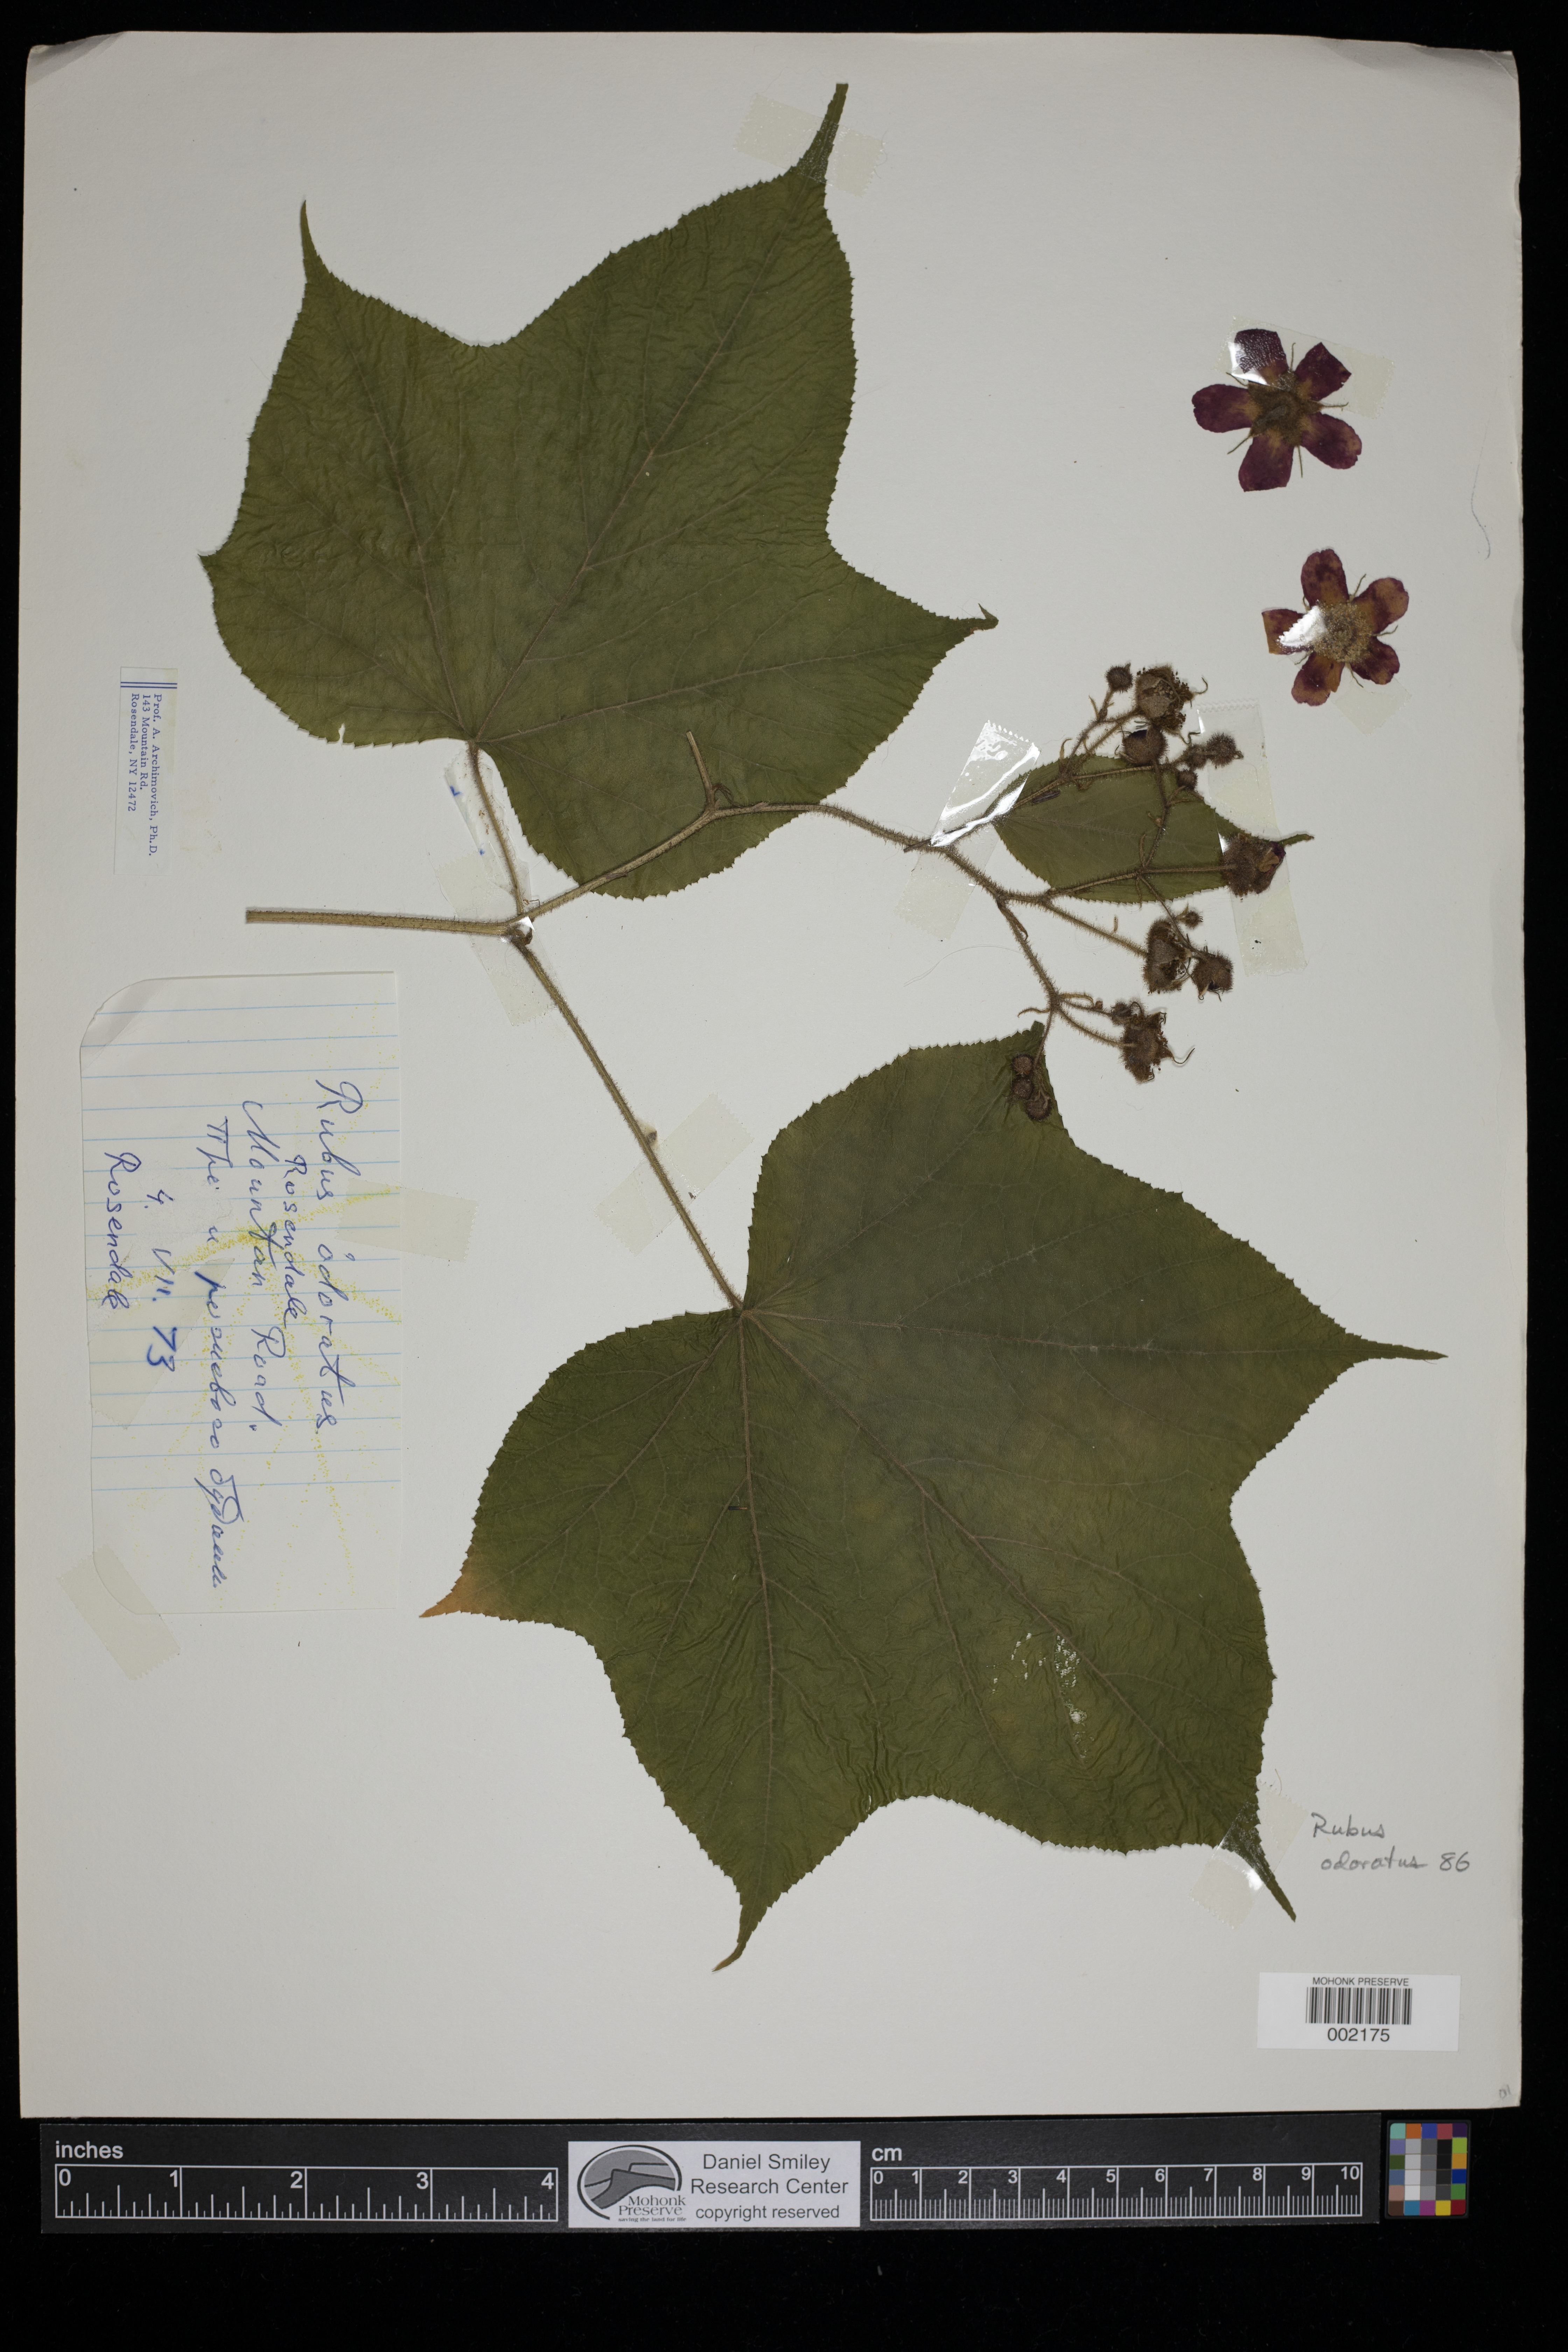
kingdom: Plantae
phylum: Tracheophyta
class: Magnoliopsida
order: Rosales
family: Rosaceae
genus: Rubus
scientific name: Rubus odoratus
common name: Purple-flowered raspberry
